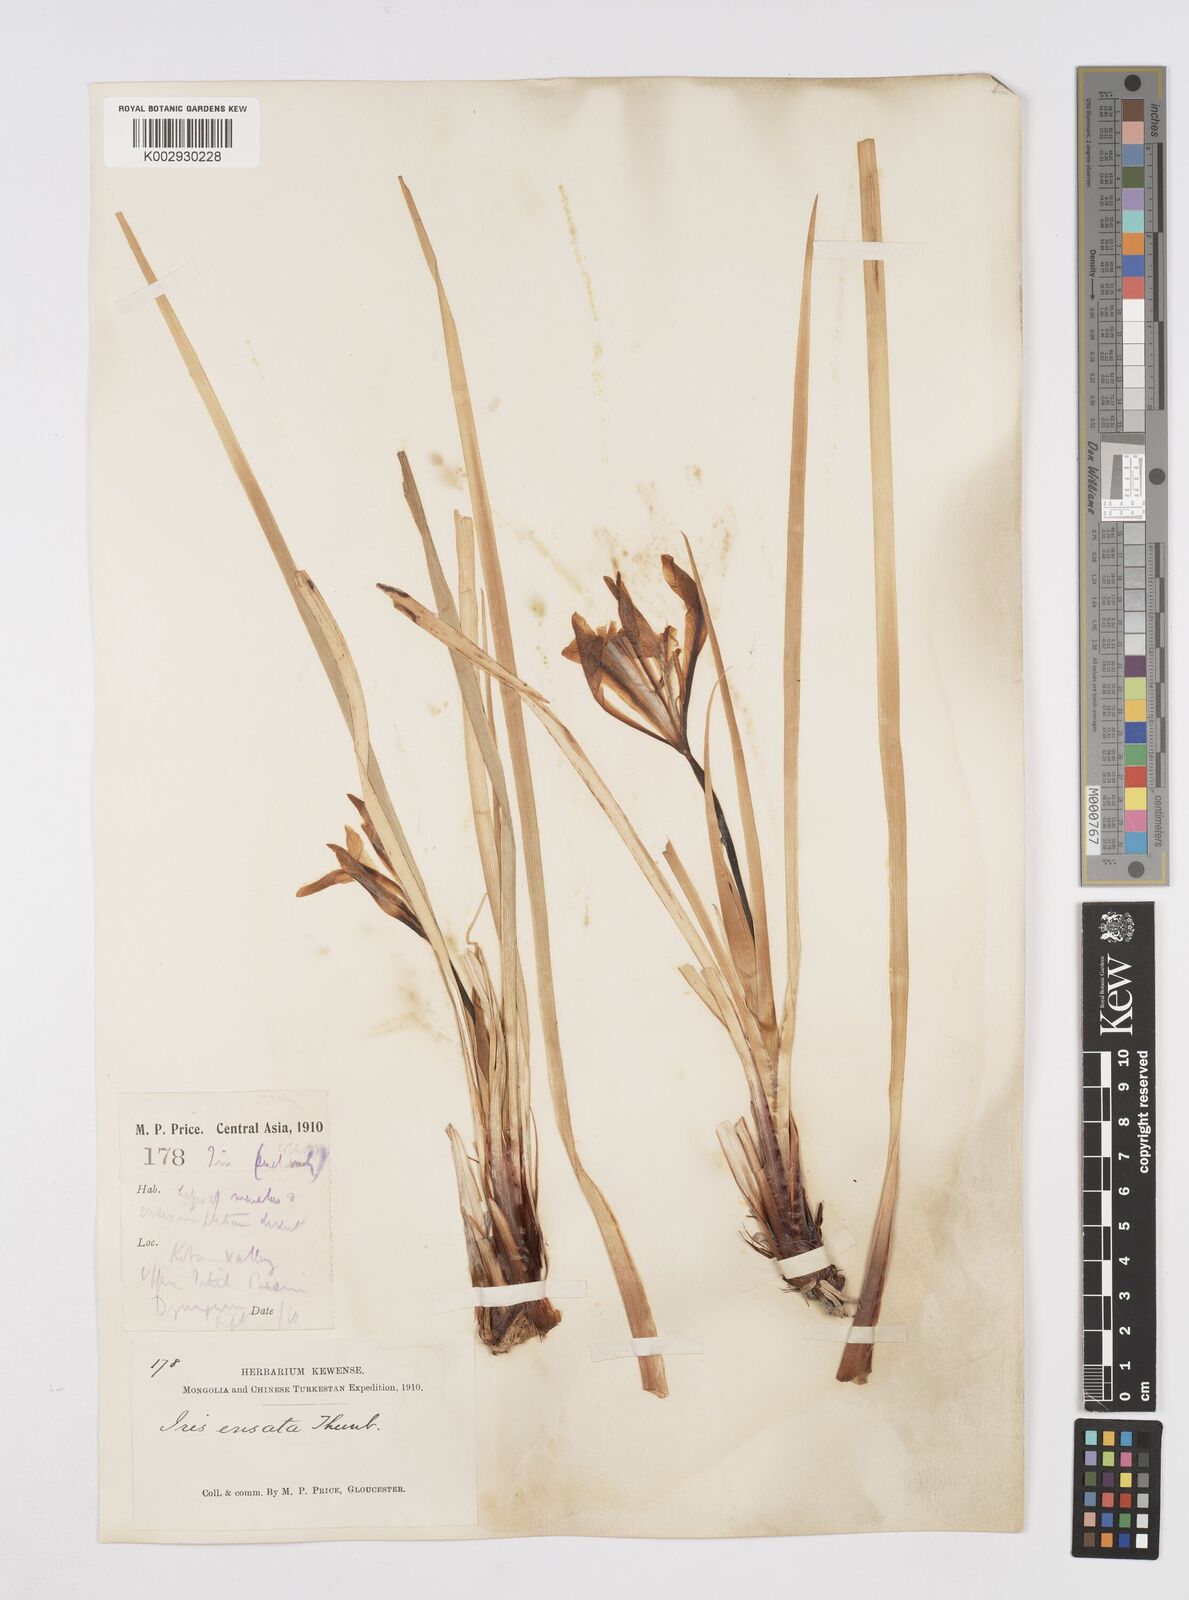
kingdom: Plantae
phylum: Tracheophyta
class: Liliopsida
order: Asparagales
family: Iridaceae
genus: Iris
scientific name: Iris ensata
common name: Beaked iris
